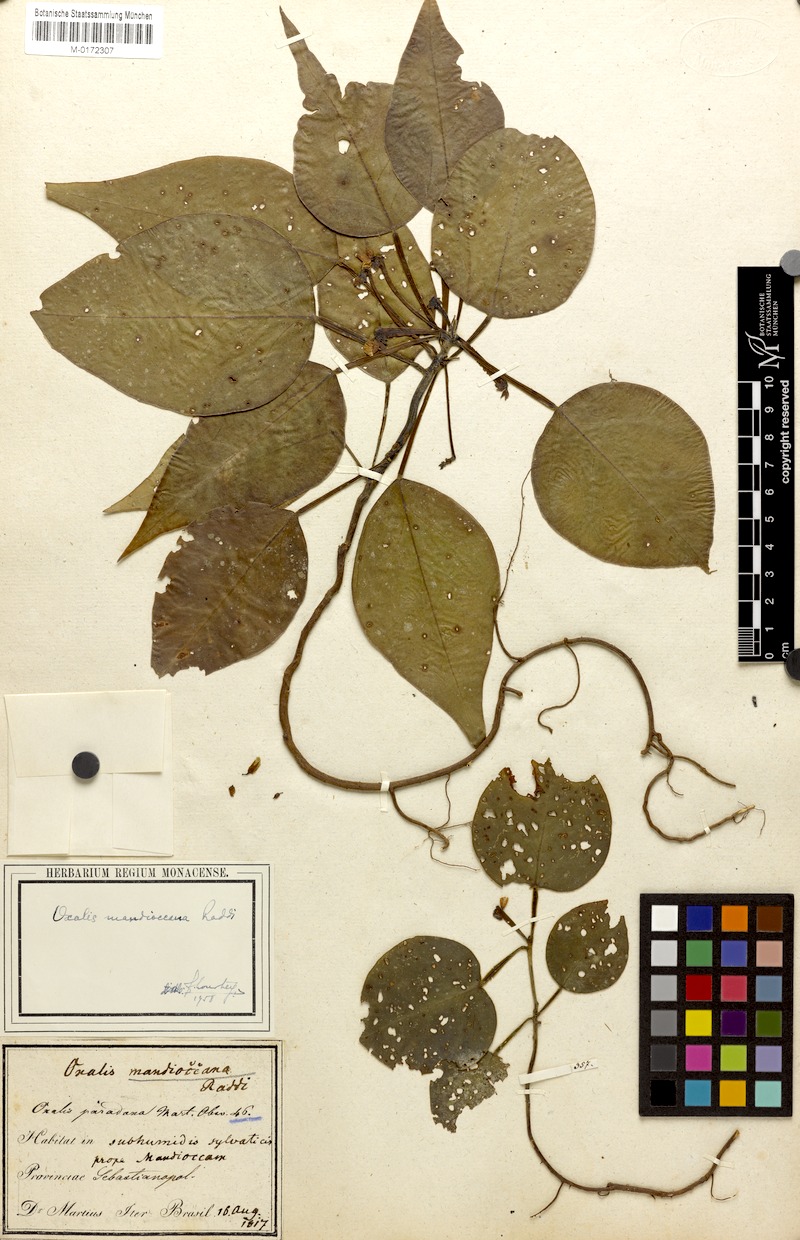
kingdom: Plantae
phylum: Tracheophyta
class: Magnoliopsida
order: Oxalidales
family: Oxalidaceae
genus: Oxalis
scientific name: Oxalis mandioccana
